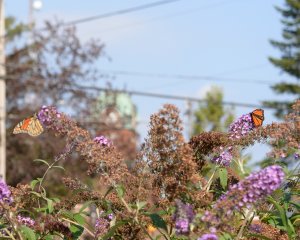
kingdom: Animalia
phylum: Arthropoda
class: Insecta
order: Lepidoptera
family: Nymphalidae
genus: Danaus
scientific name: Danaus plexippus
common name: Monarch
